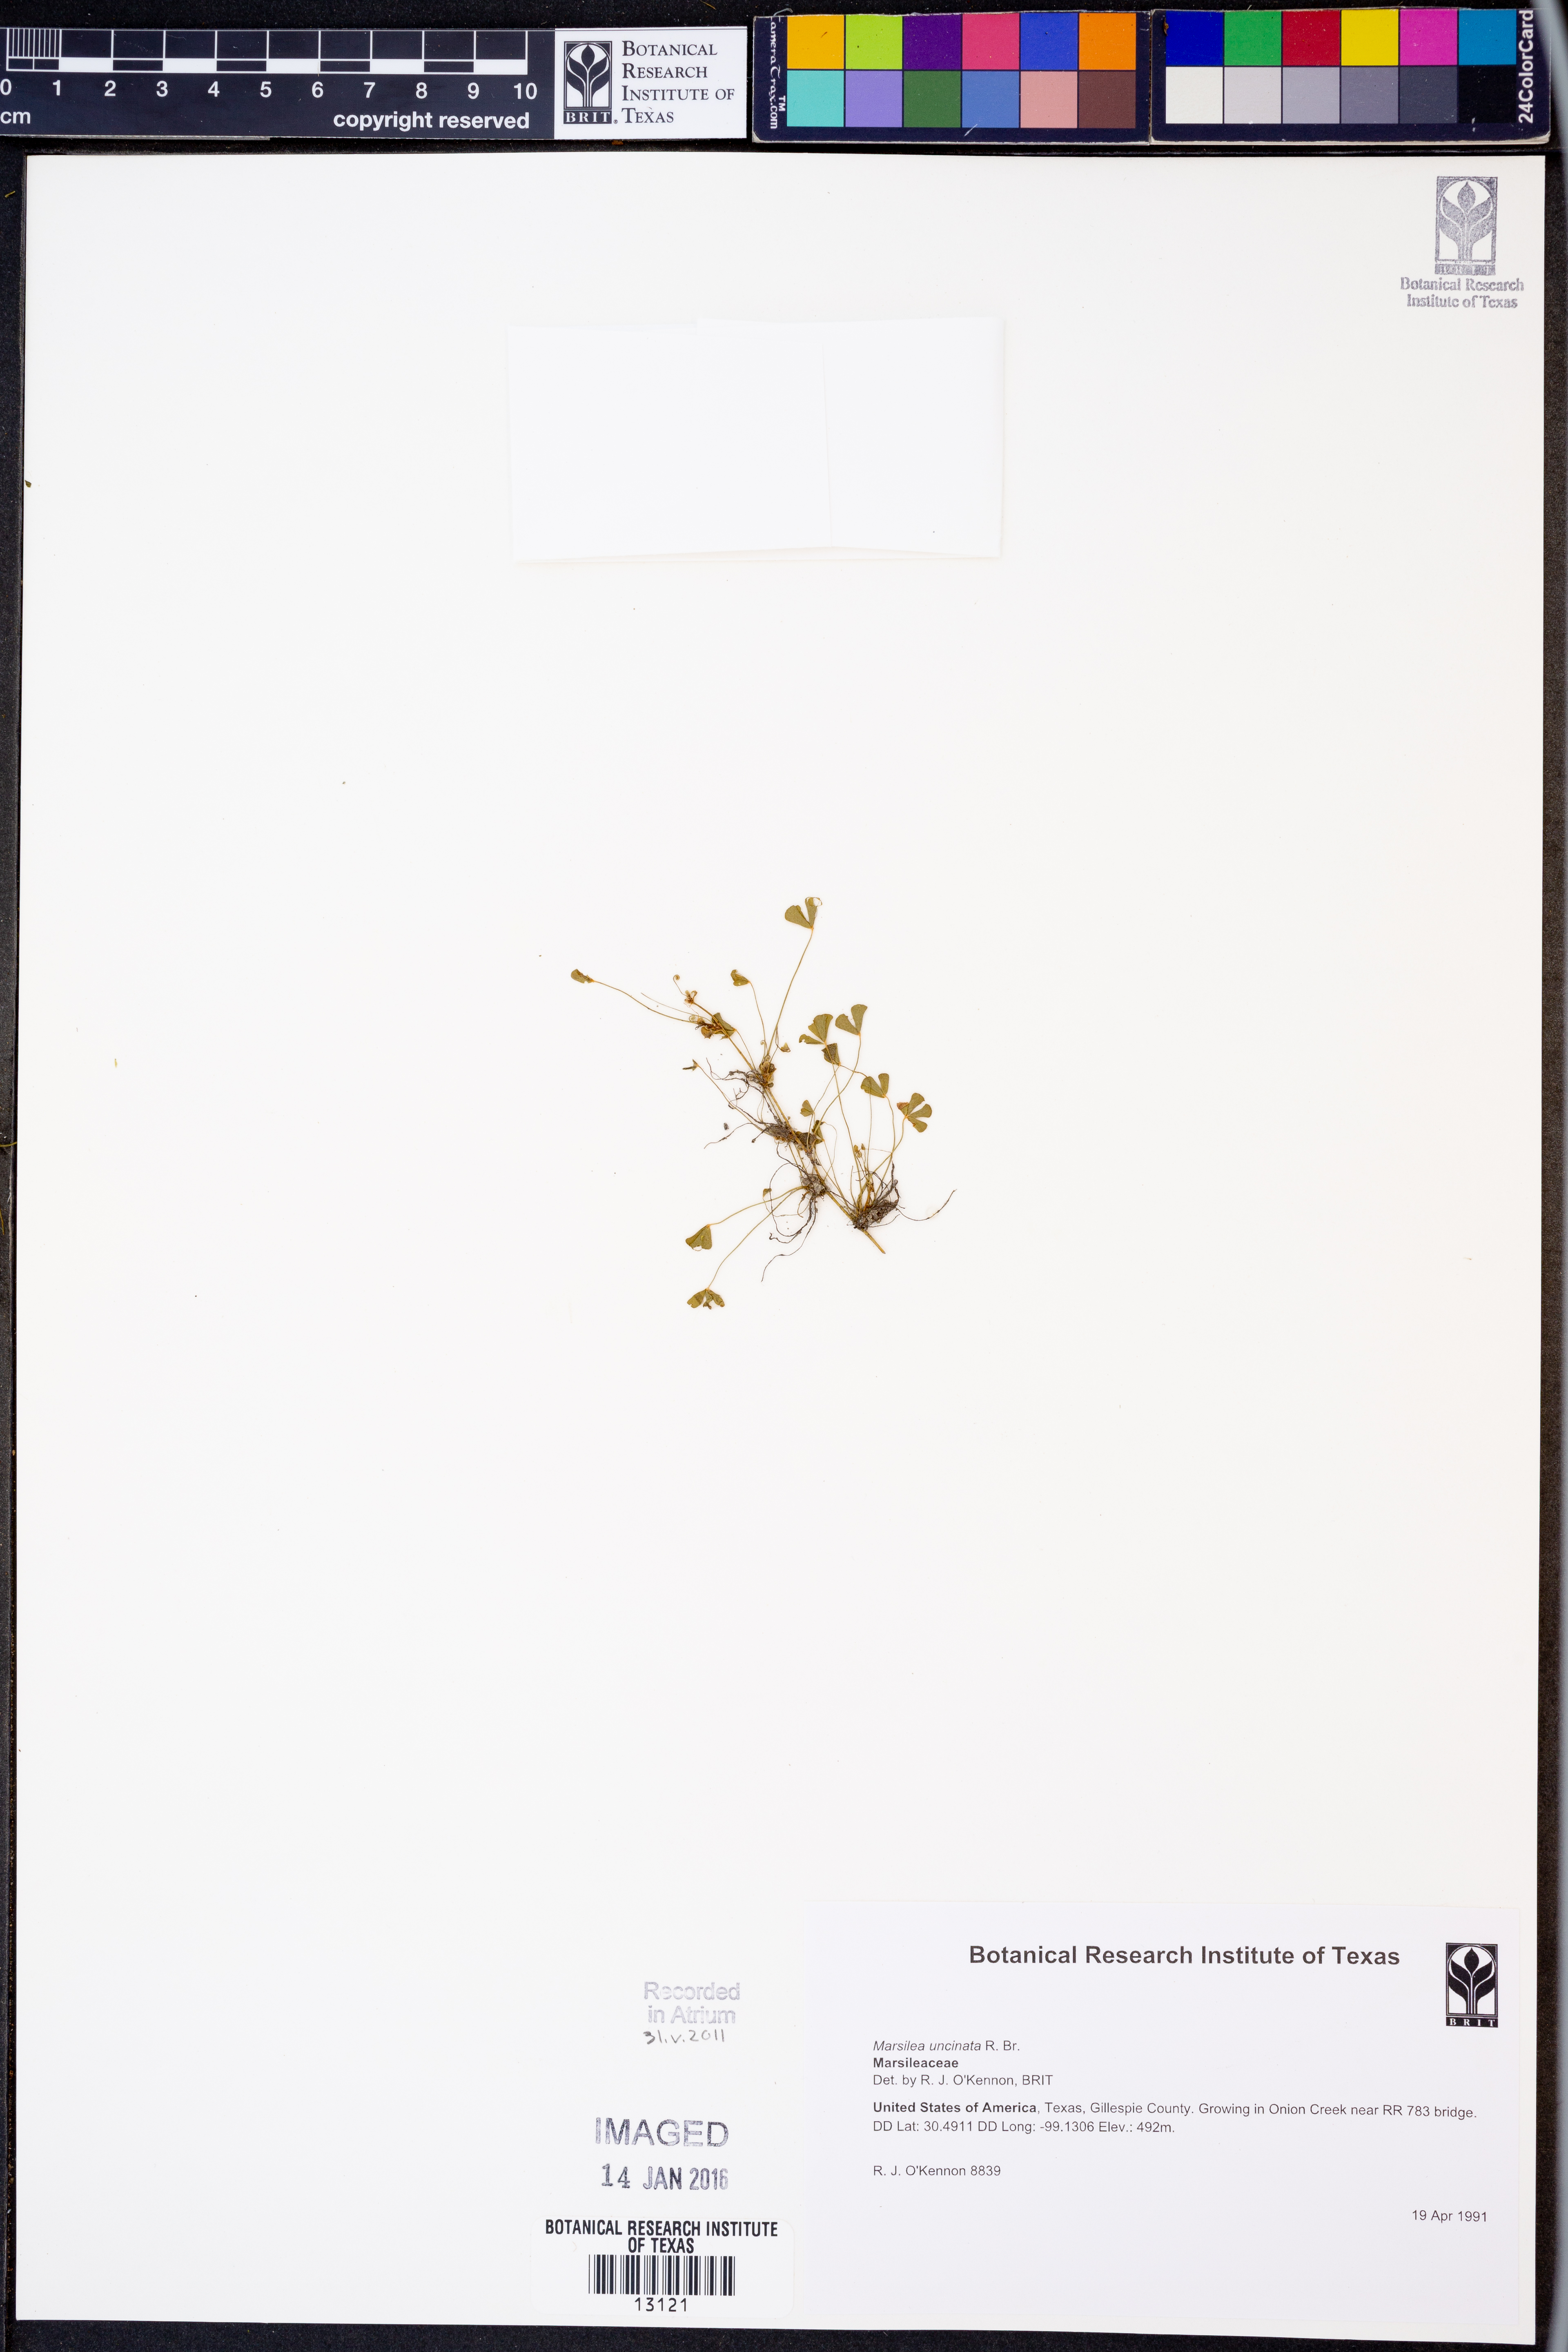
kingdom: Plantae
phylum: Tracheophyta
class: Polypodiopsida
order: Salviniales
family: Marsileaceae
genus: Marsilea
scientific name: Marsilea vestita
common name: Hooked-pepperwort
